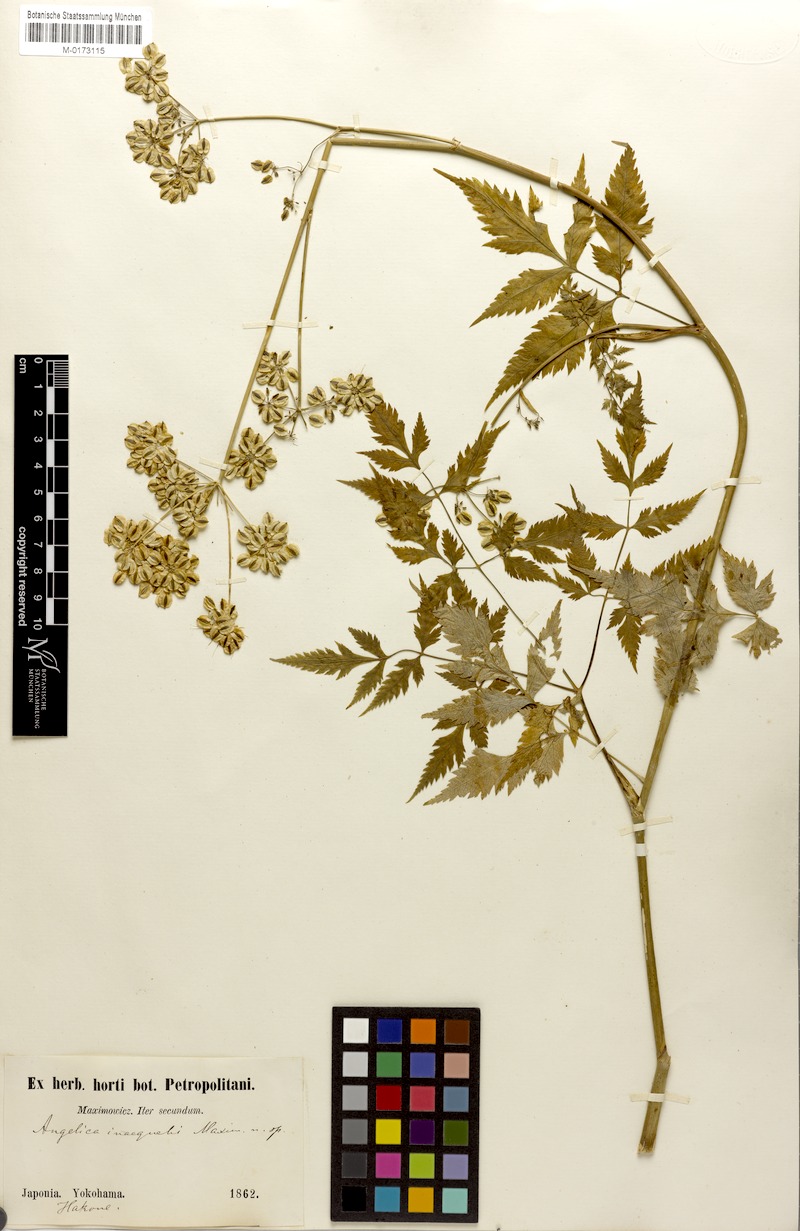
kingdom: Plantae
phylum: Tracheophyta
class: Magnoliopsida
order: Apiales
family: Apiaceae
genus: Angelica
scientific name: Angelica inaequalis
